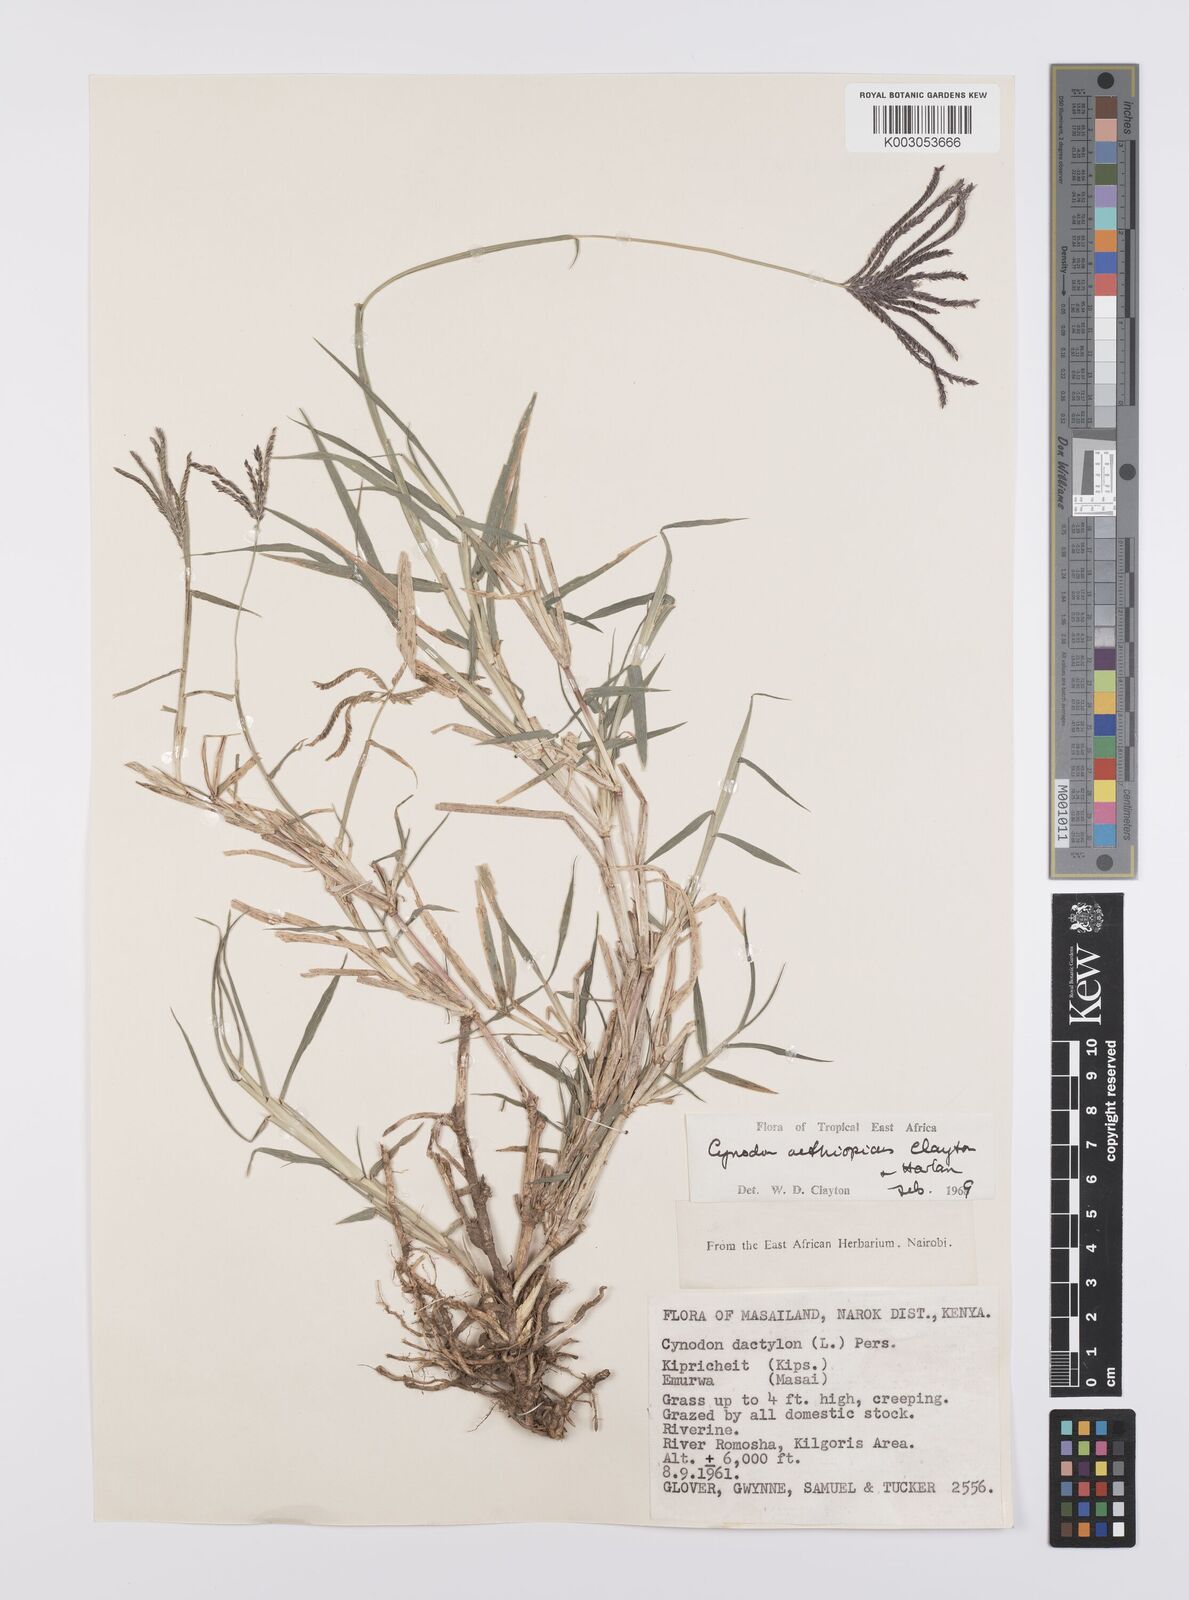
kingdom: Plantae
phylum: Tracheophyta
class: Liliopsida
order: Poales
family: Poaceae
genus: Cynodon
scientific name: Cynodon aethiopicus
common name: Ethiopian dogstooth grass
